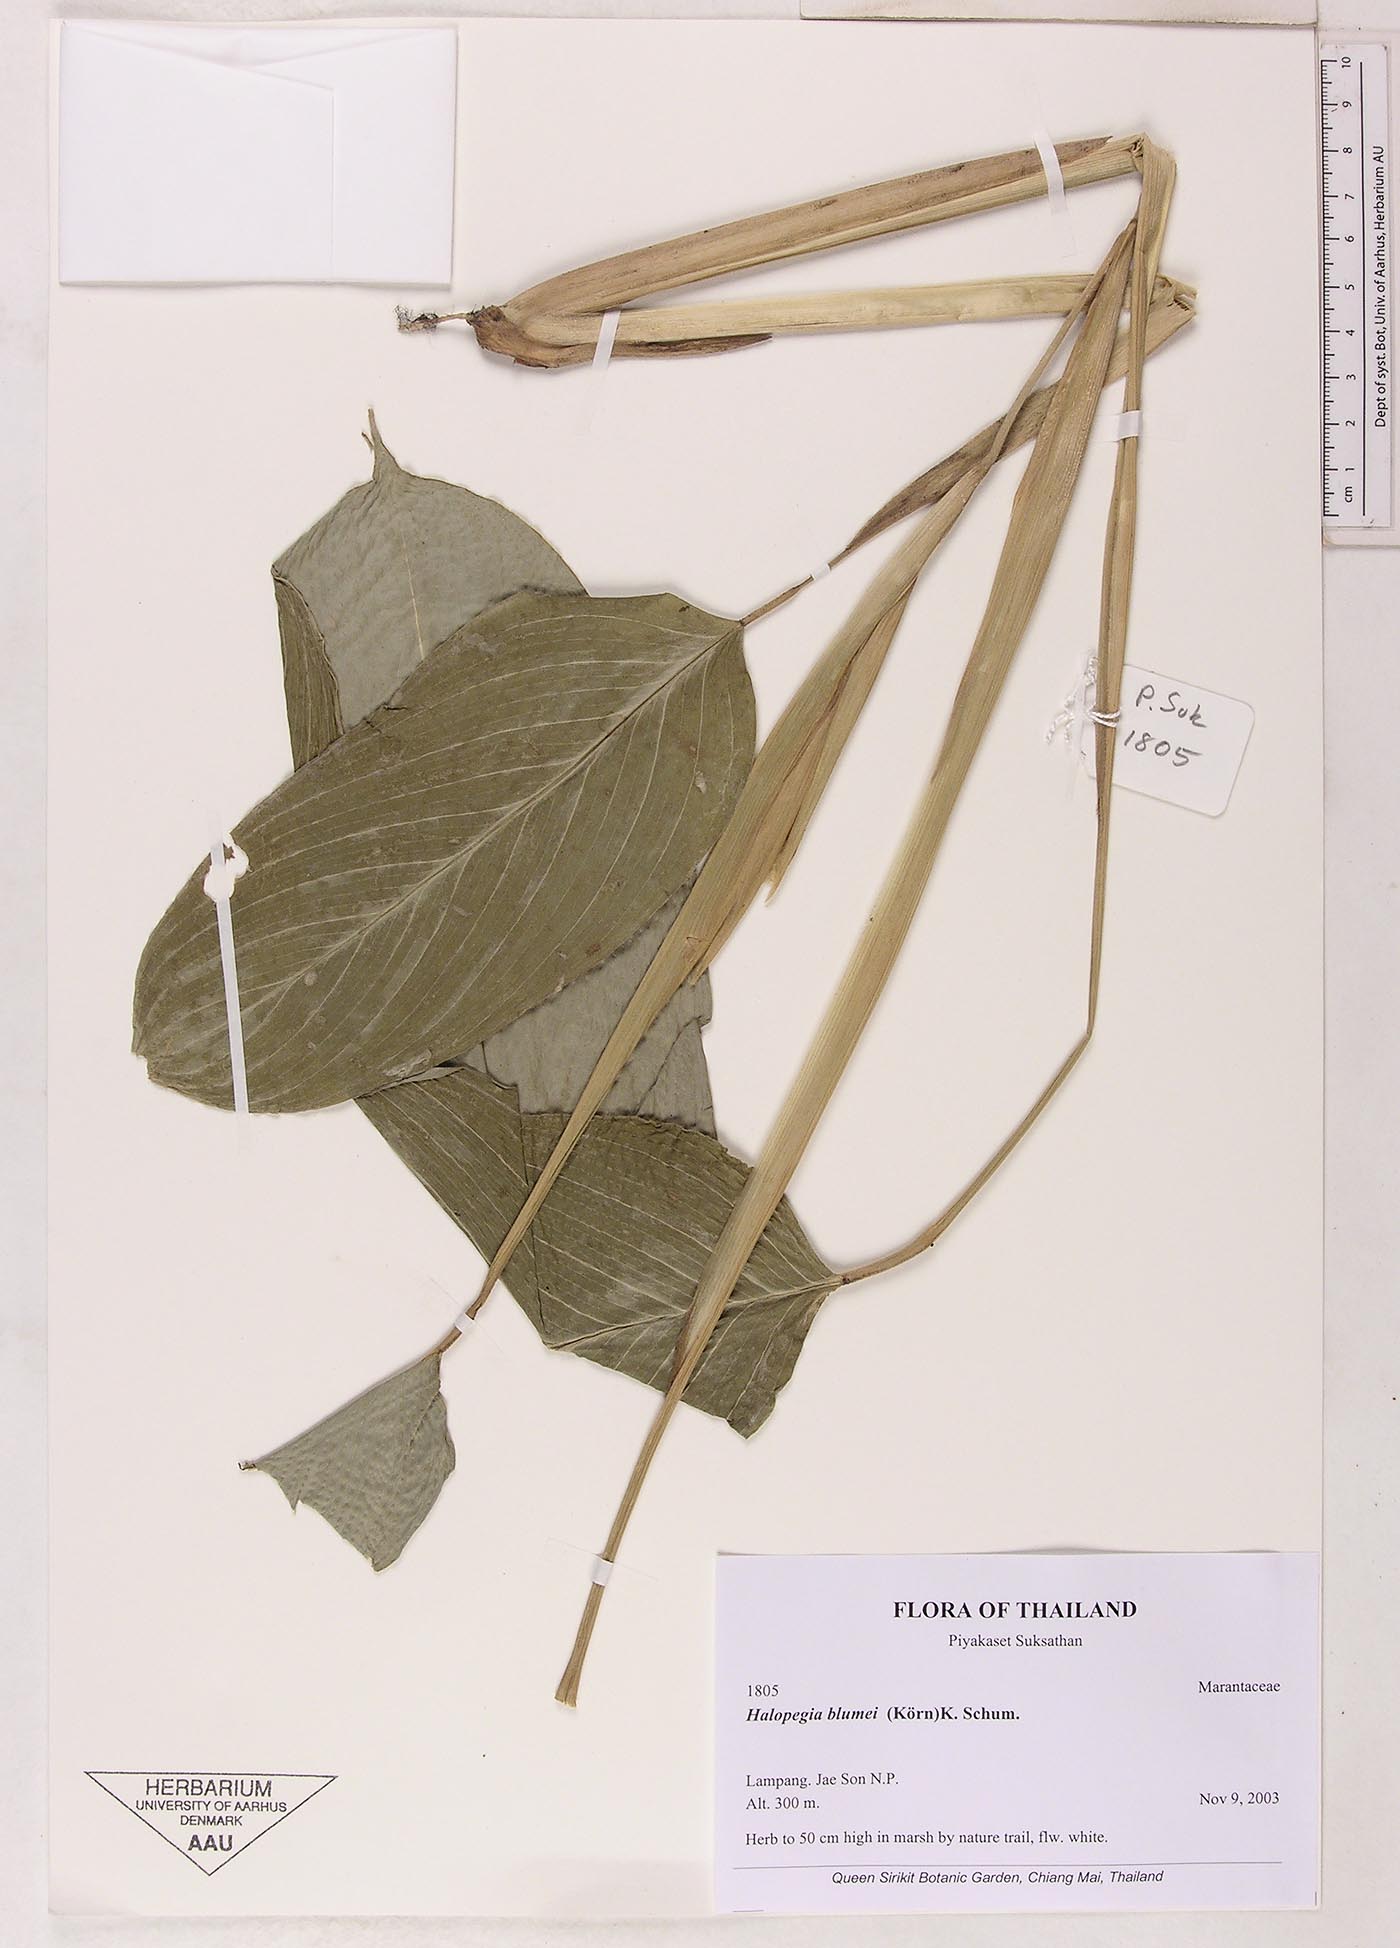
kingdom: Plantae
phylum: Tracheophyta
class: Liliopsida
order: Zingiberales
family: Marantaceae
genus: Halopegia
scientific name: Halopegia blumei
